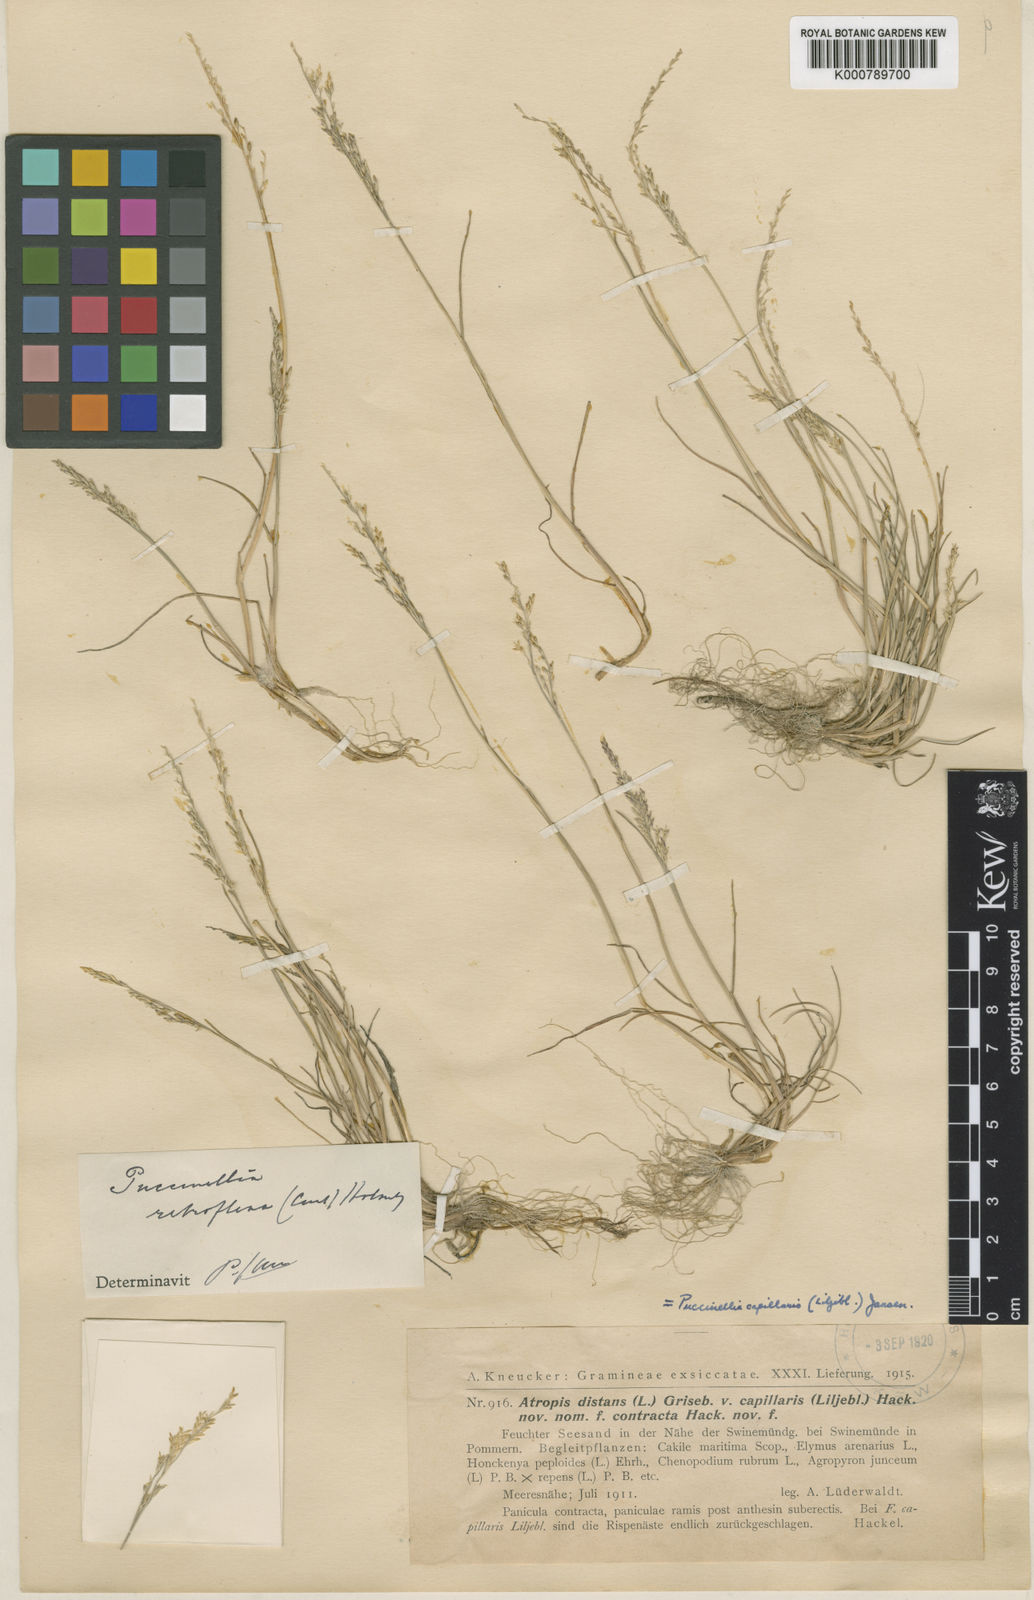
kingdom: Plantae
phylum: Tracheophyta
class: Liliopsida
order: Poales
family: Poaceae
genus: Puccinellia
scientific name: Puccinellia distans
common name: Weeping alkaligrass
